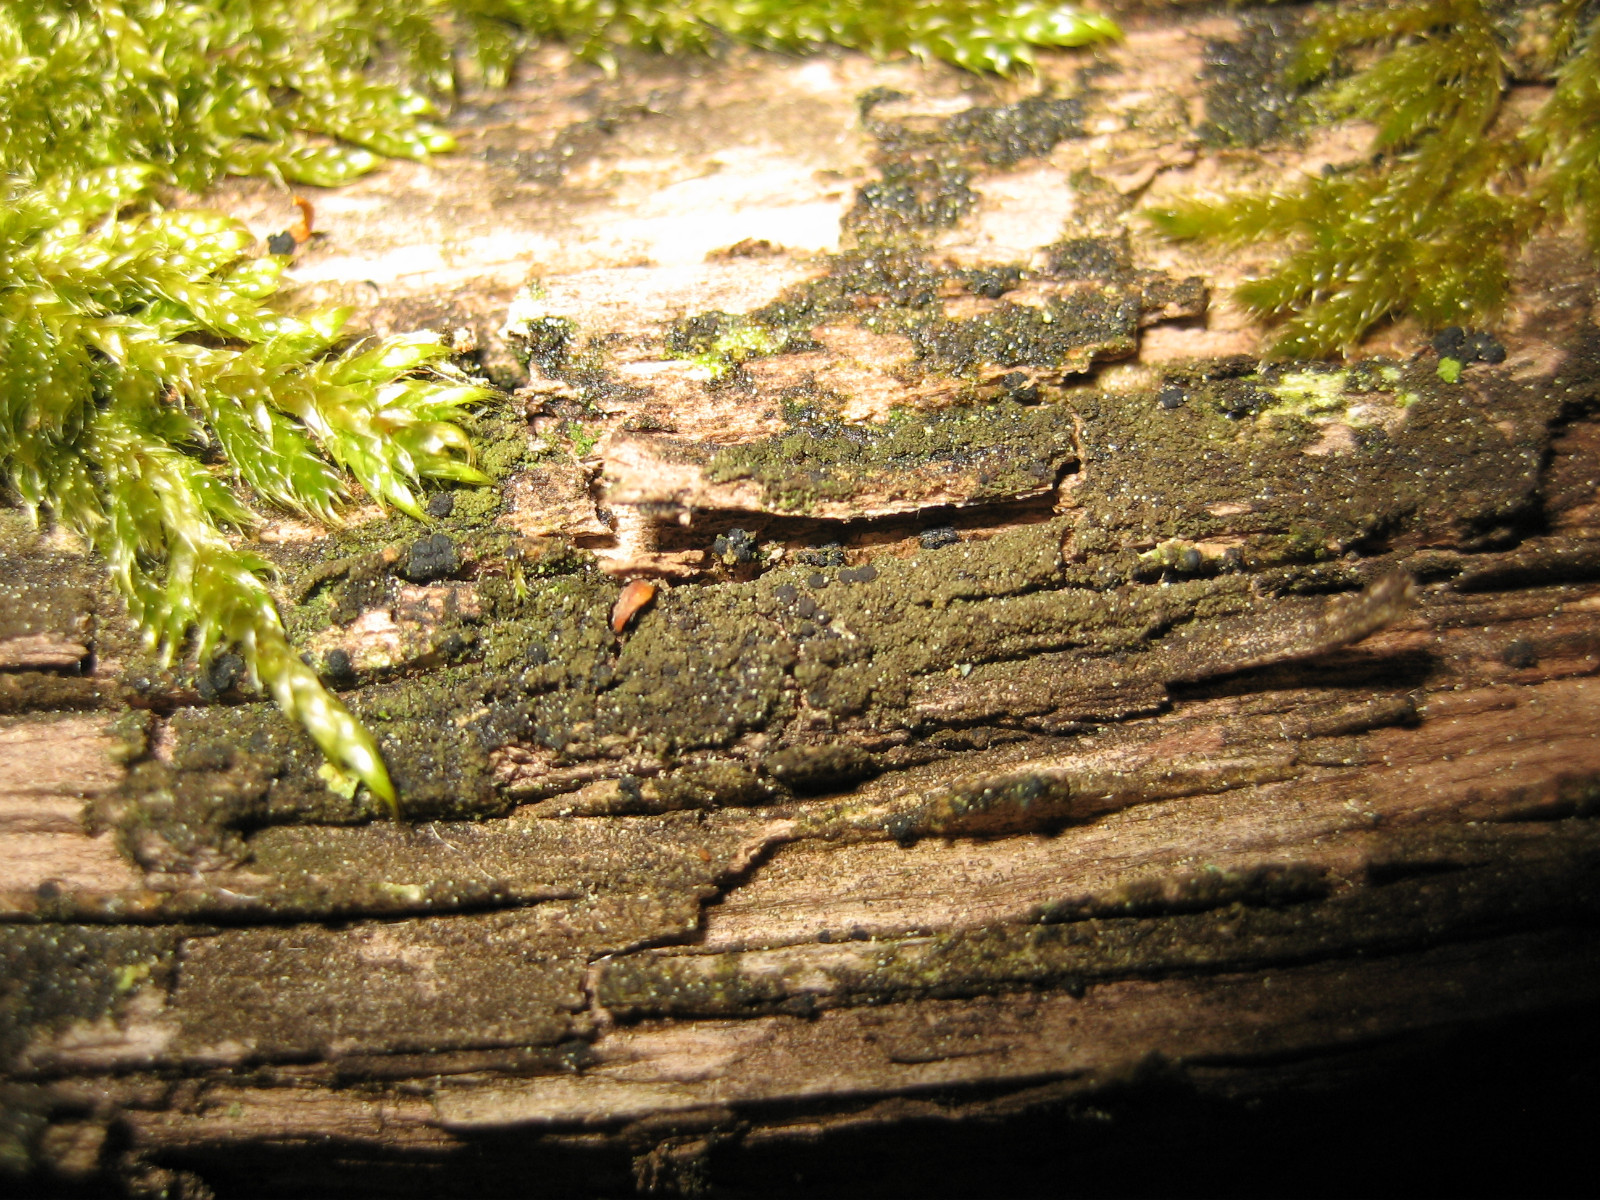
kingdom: Fungi
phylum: Ascomycota
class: Lecanoromycetes
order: Baeomycetales
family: Trapeliaceae
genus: Placynthiella
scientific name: Placynthiella icmalea
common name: stift-skivelav
